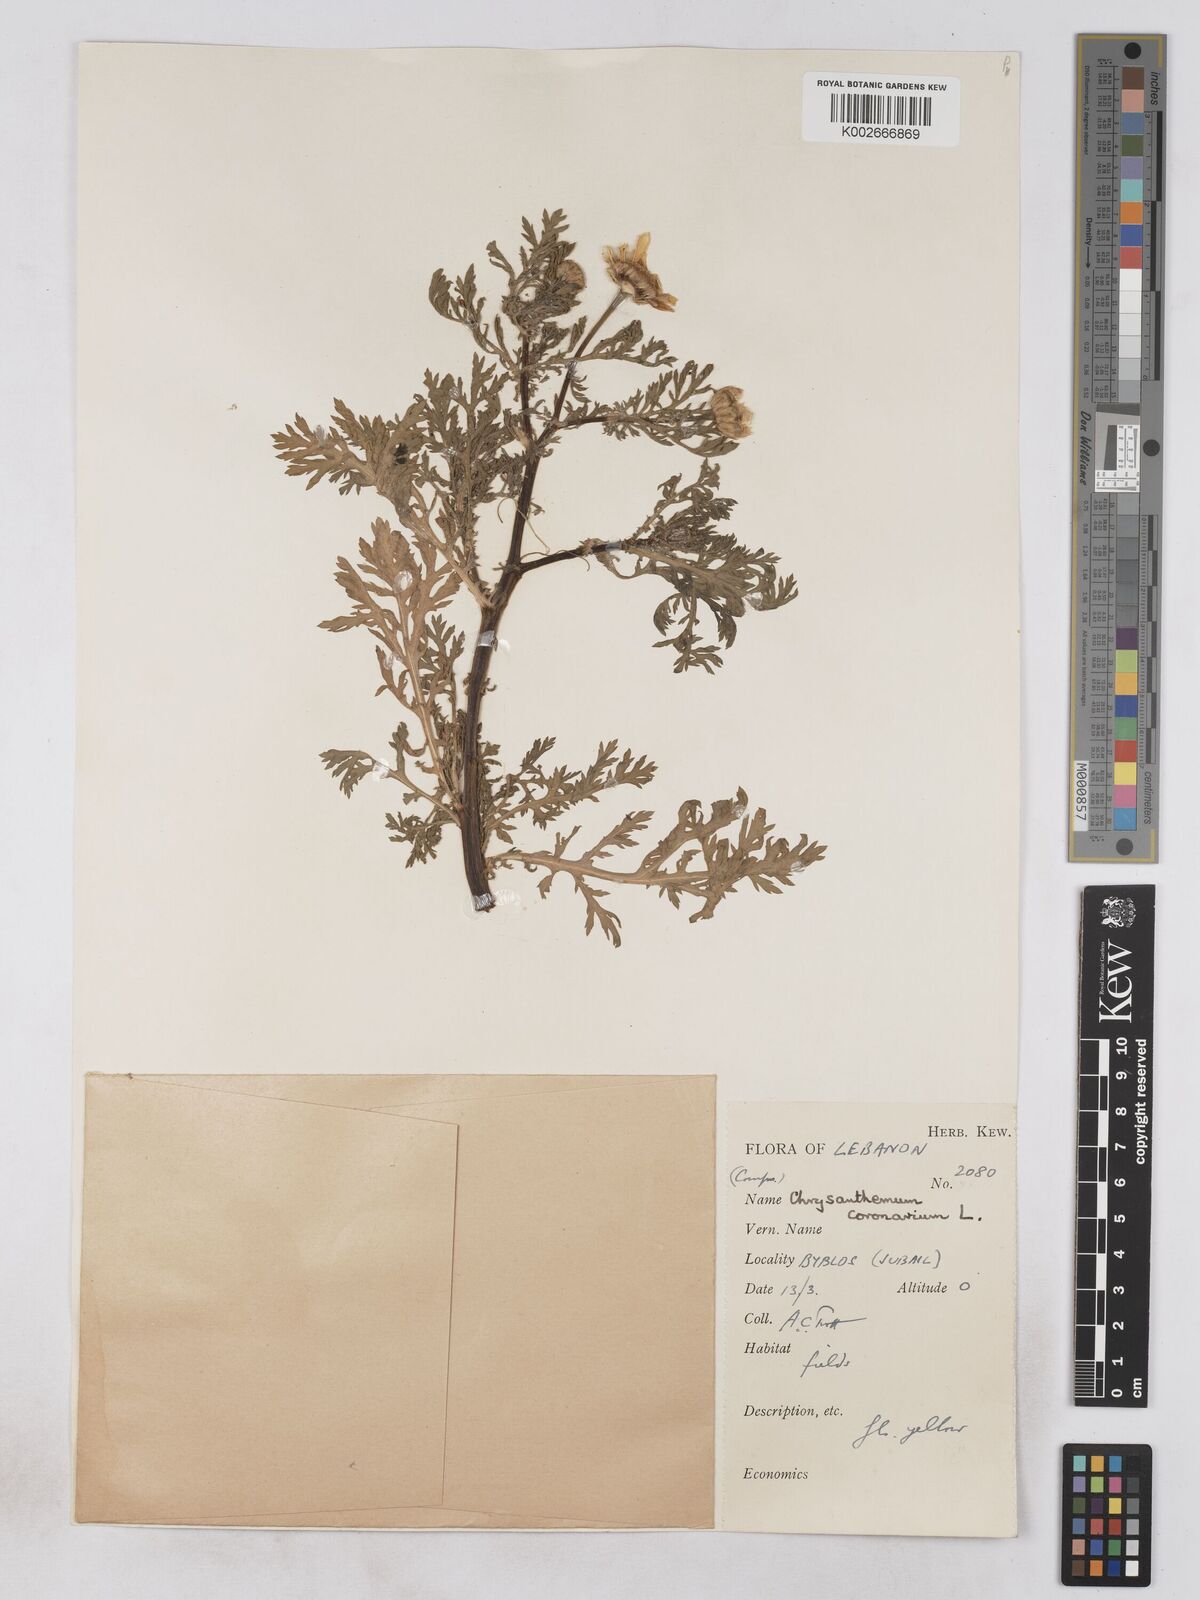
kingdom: Plantae
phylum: Tracheophyta
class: Magnoliopsida
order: Asterales
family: Asteraceae
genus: Glebionis
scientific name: Glebionis coronaria
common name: Crowndaisy
